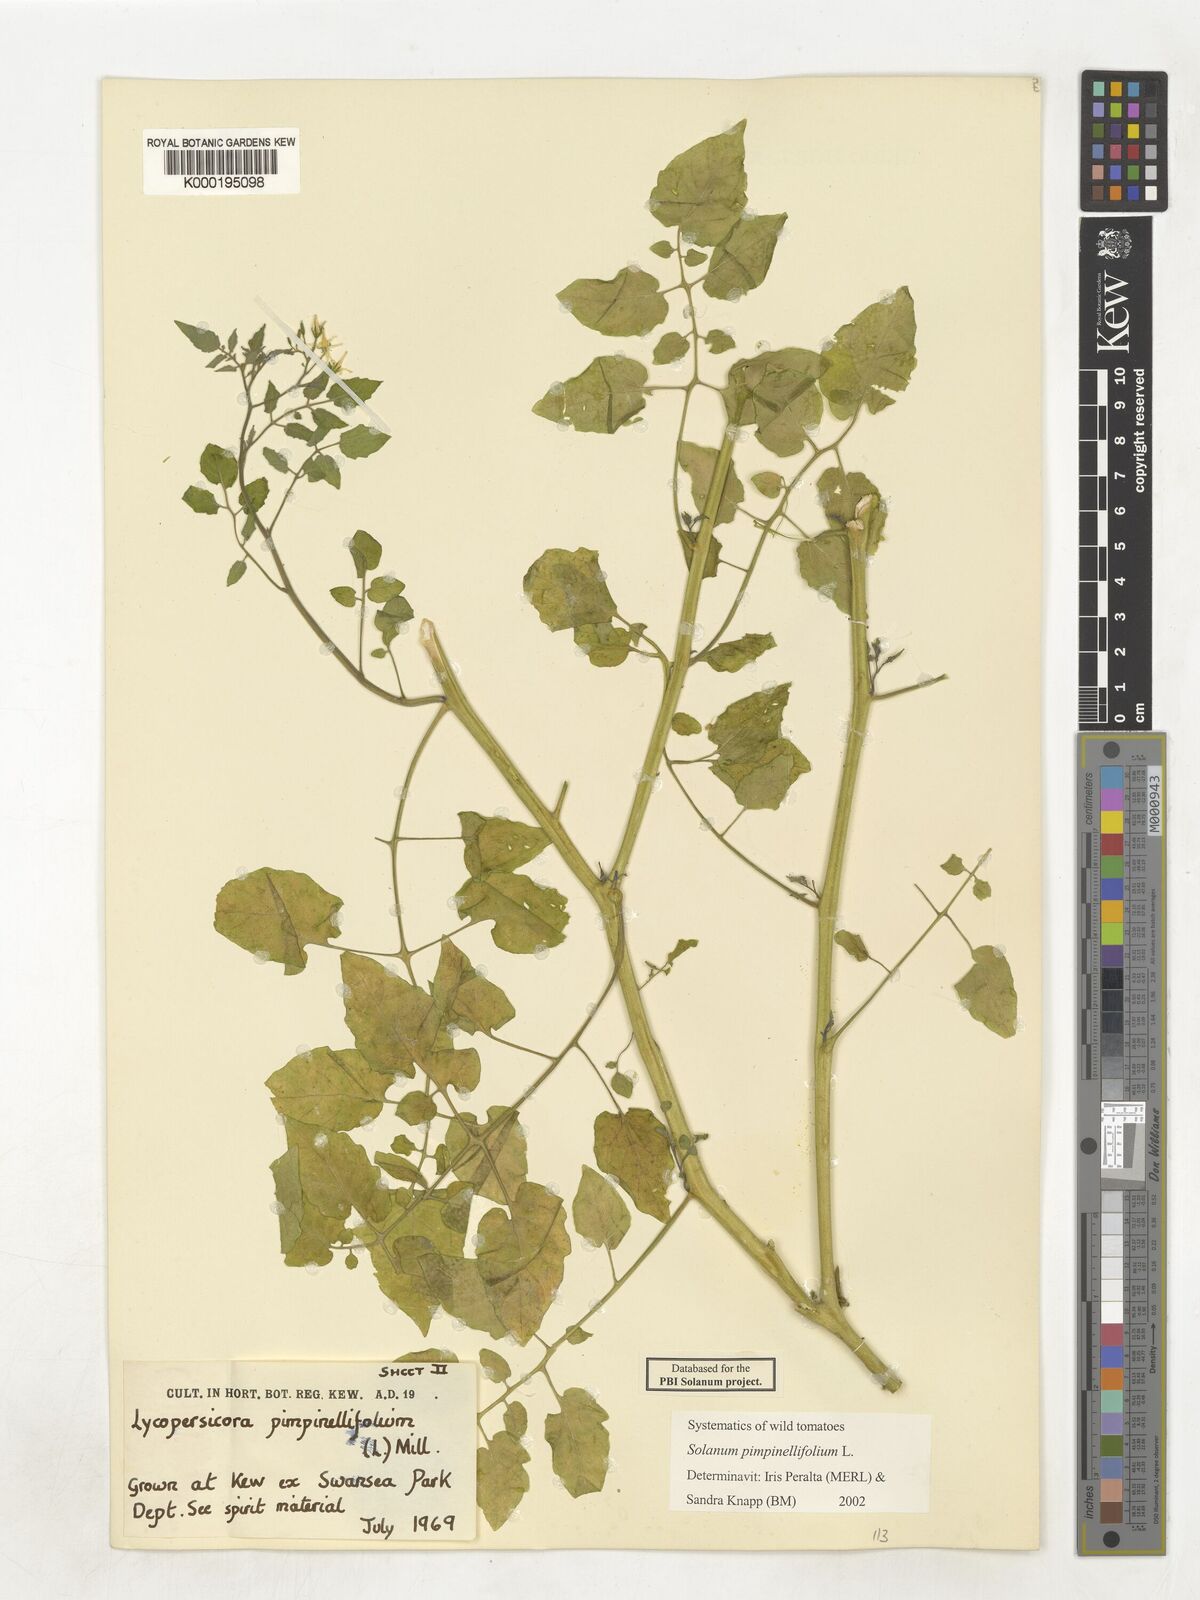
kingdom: Plantae
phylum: Tracheophyta
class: Magnoliopsida
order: Solanales
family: Solanaceae
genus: Solanum
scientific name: Solanum pimpinellifolium
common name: Currant-tomato
